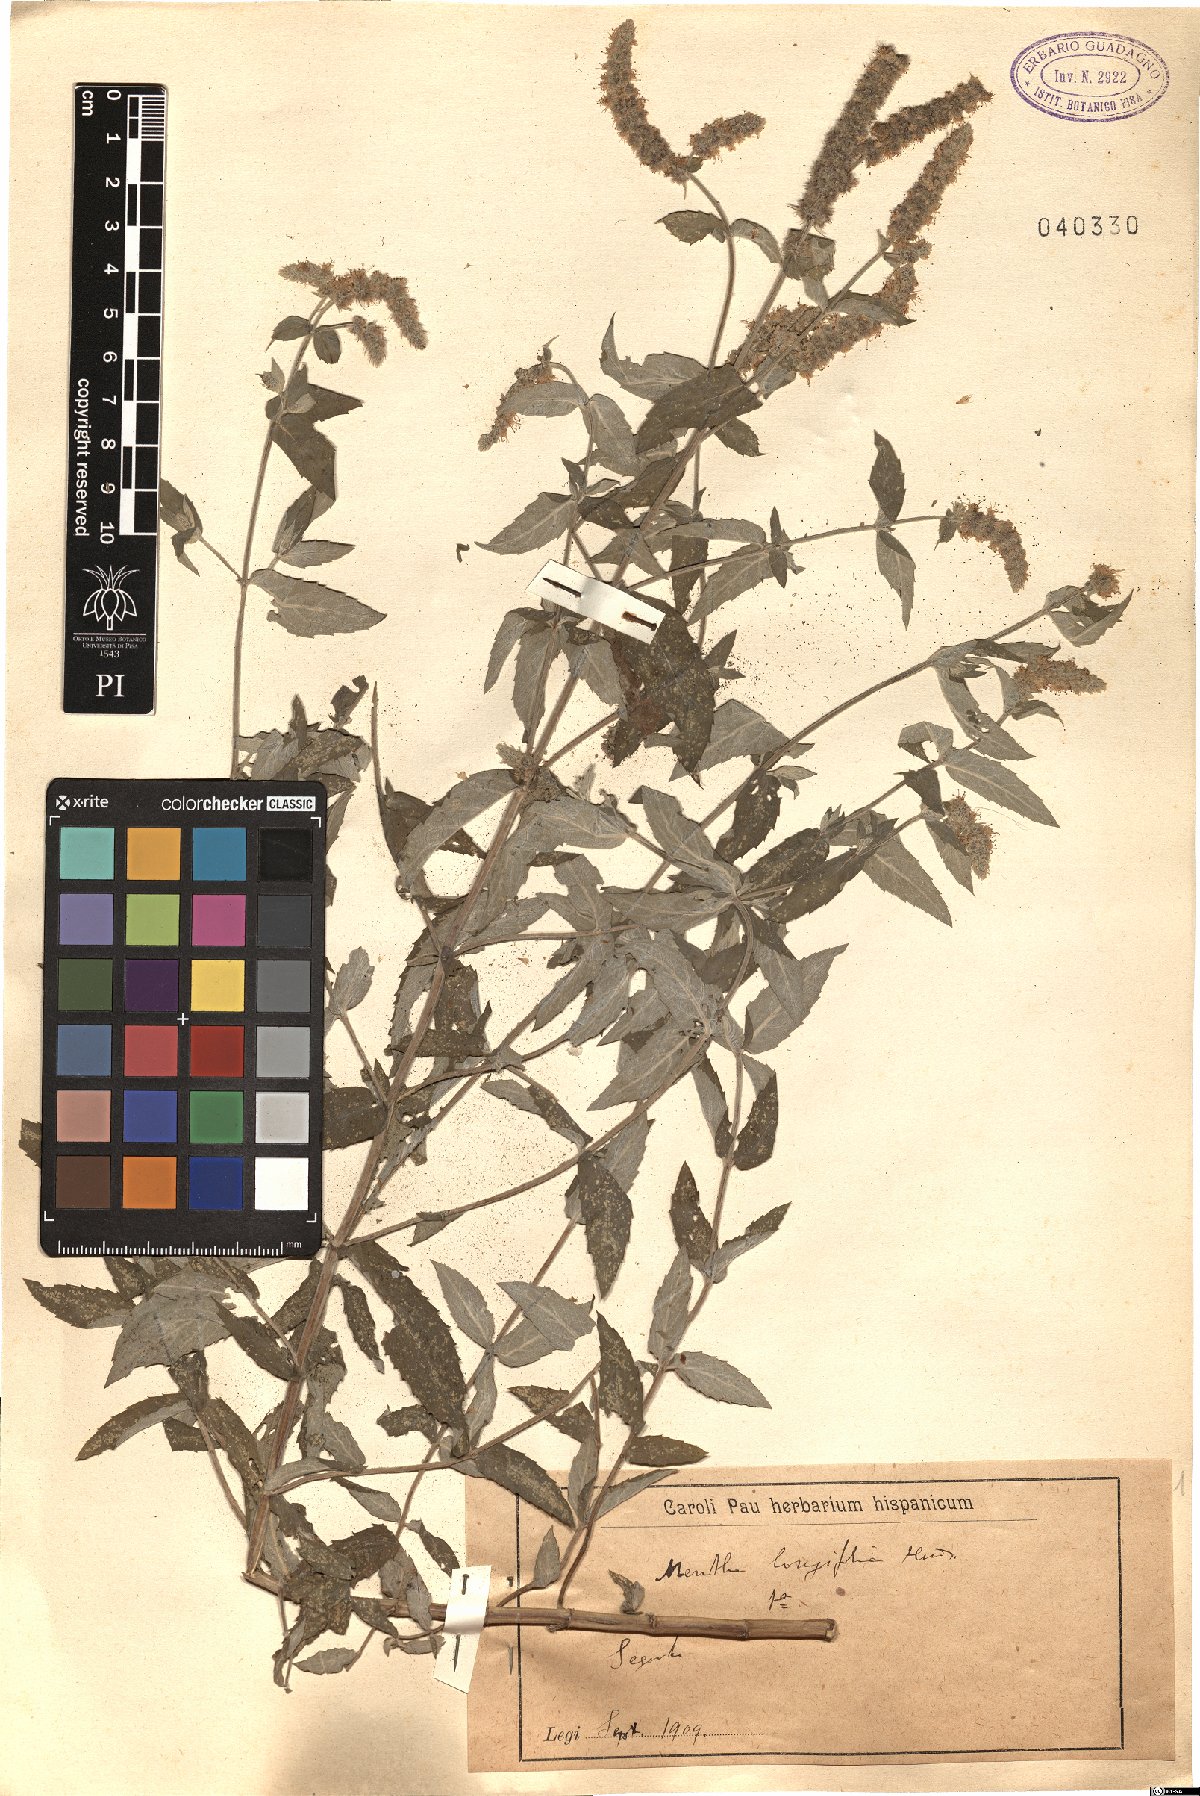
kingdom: Plantae
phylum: Tracheophyta
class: Magnoliopsida
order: Lamiales
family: Lamiaceae
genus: Mentha
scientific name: Mentha longifolia
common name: Horse mint
